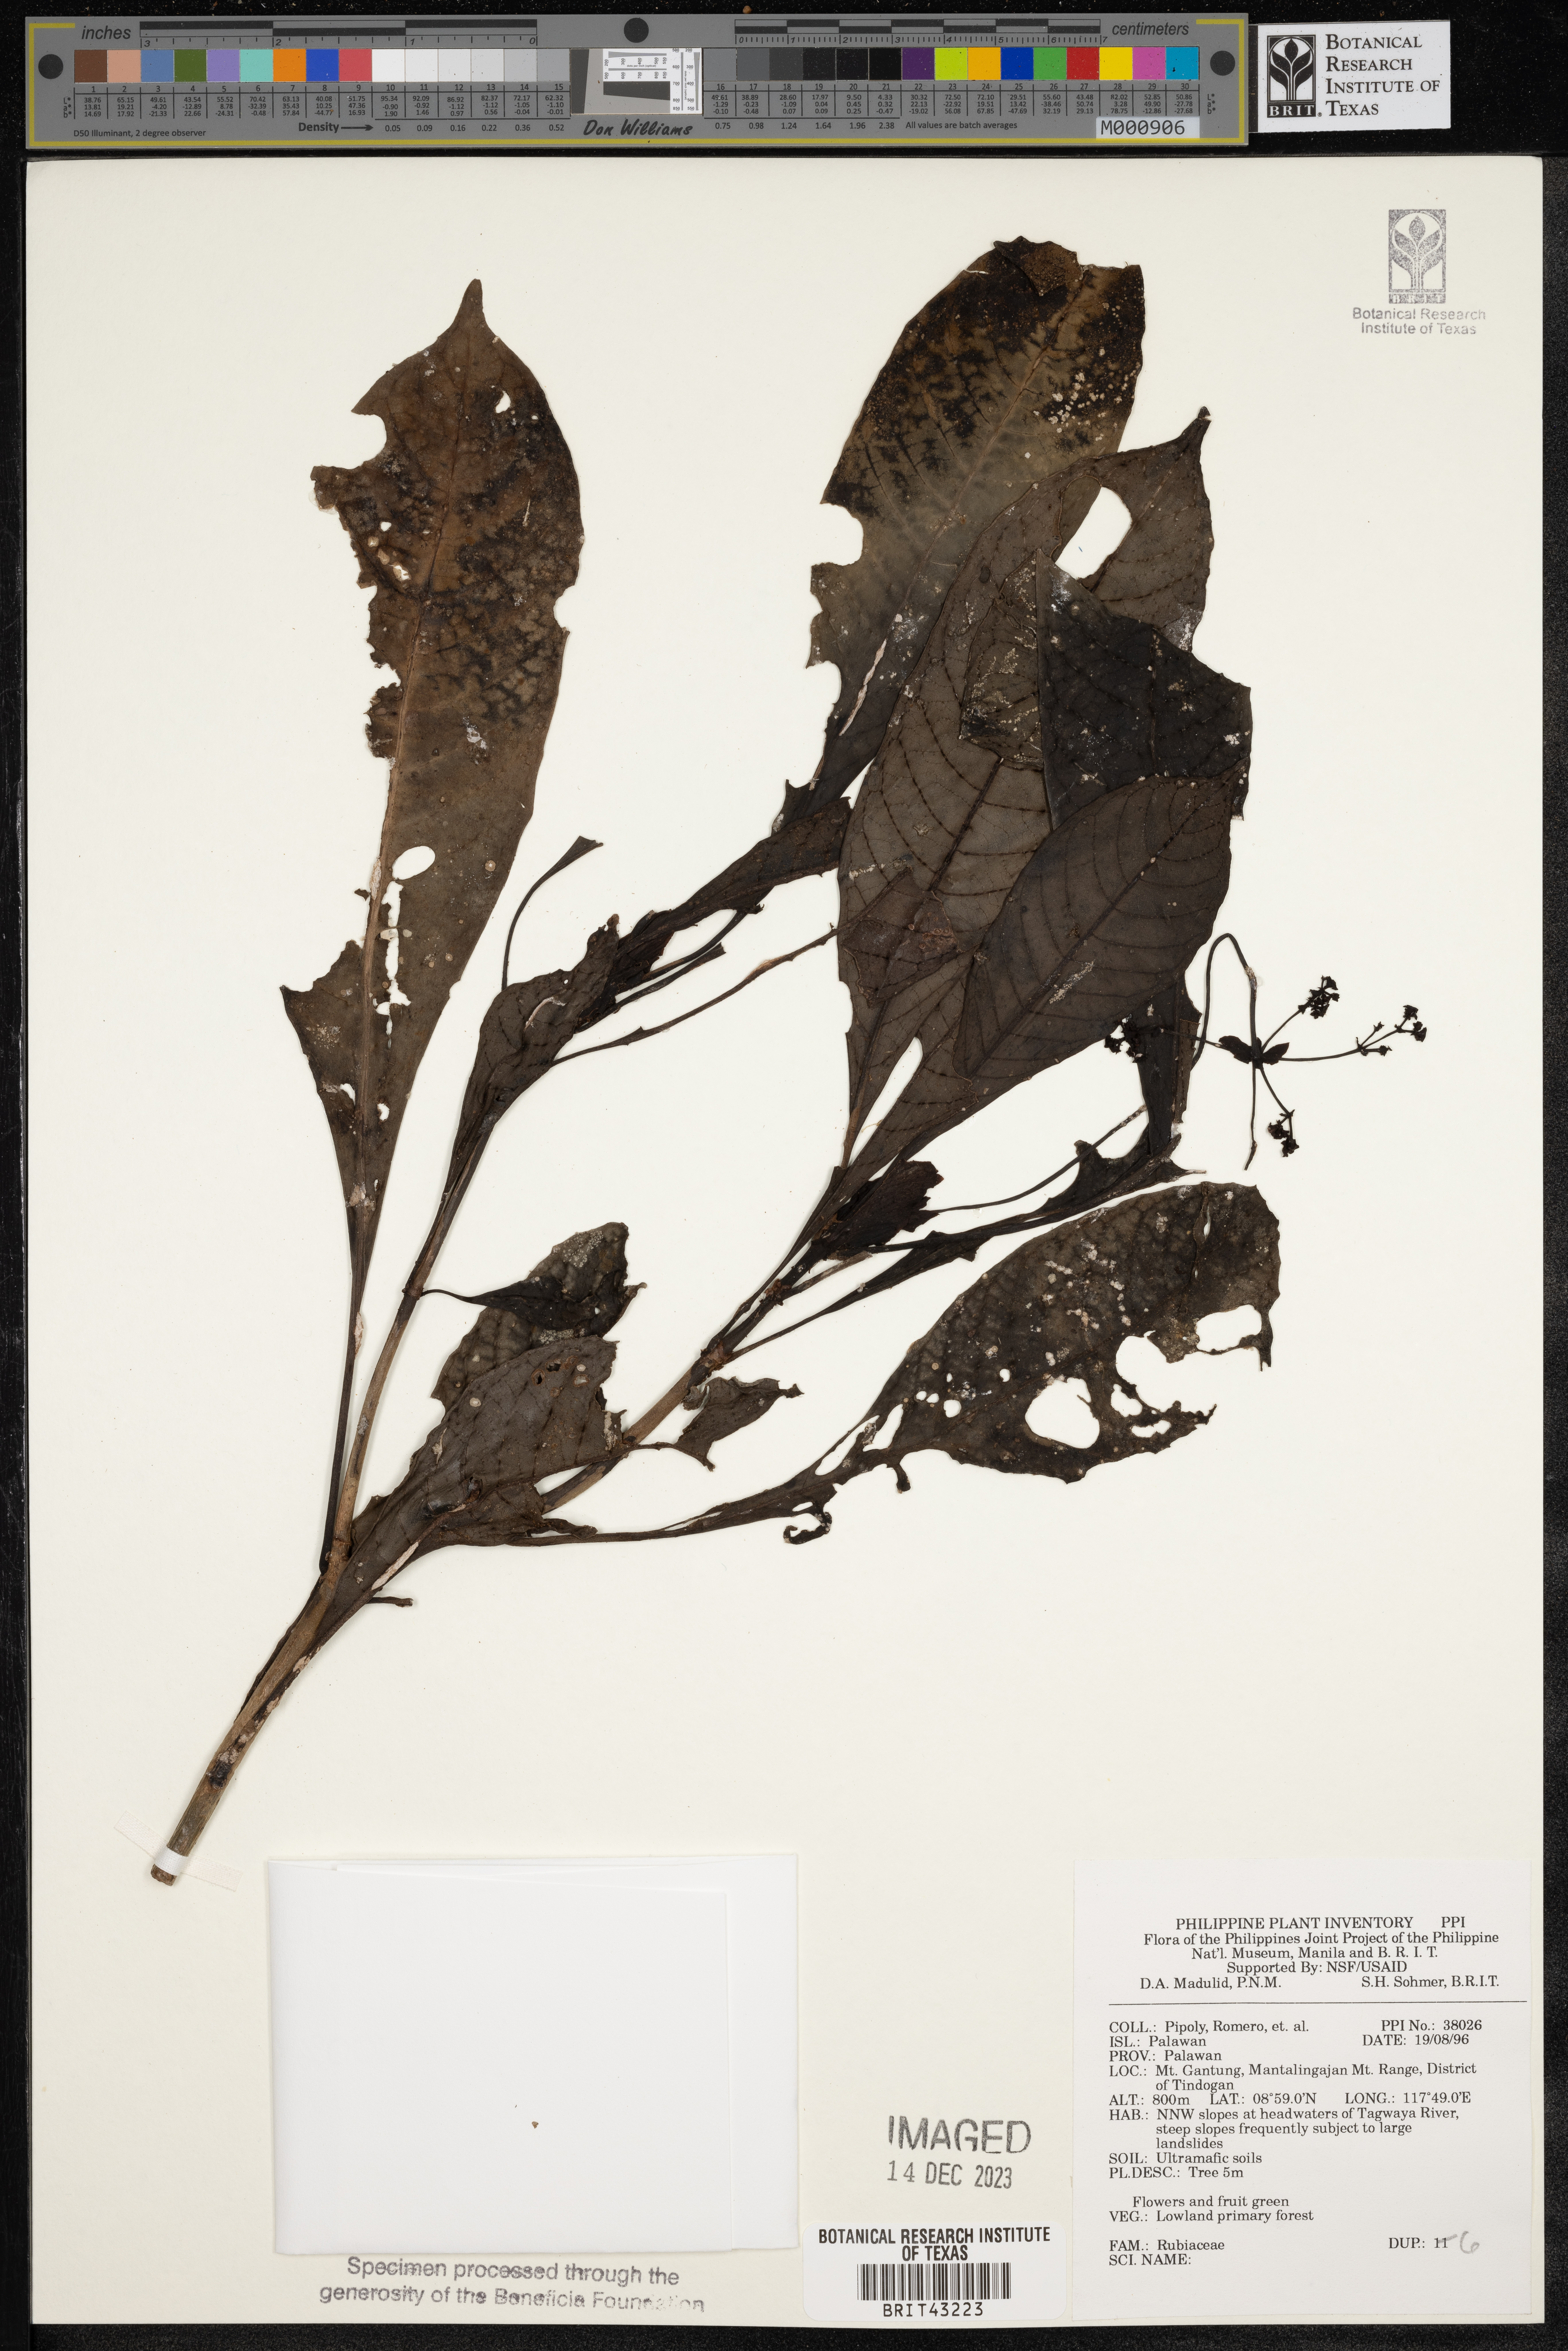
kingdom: Plantae
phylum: Tracheophyta
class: Magnoliopsida
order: Gentianales
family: Rubiaceae
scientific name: Rubiaceae
